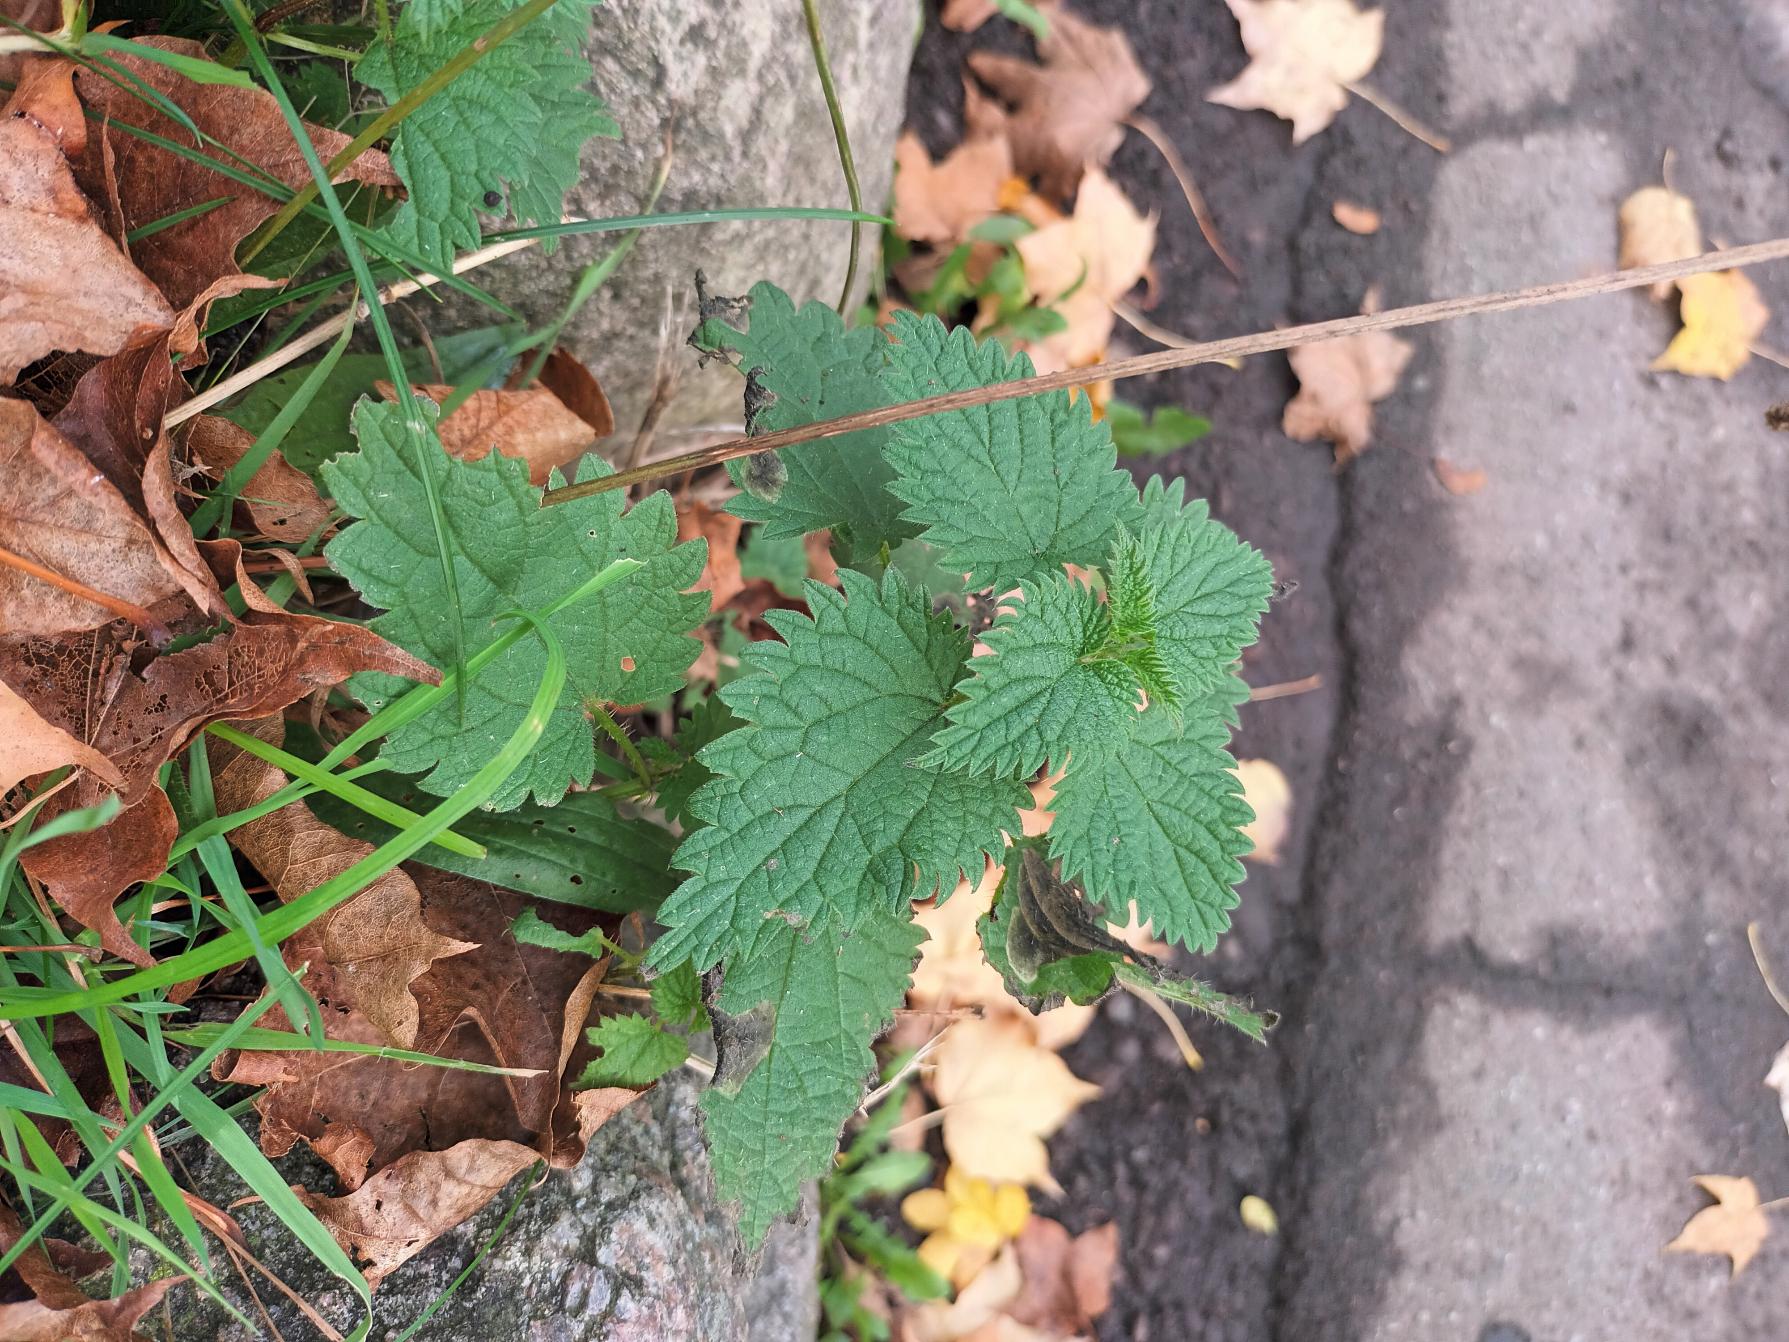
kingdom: Plantae
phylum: Tracheophyta
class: Magnoliopsida
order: Rosales
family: Urticaceae
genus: Urtica
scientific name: Urtica dioica
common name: Stor nælde
